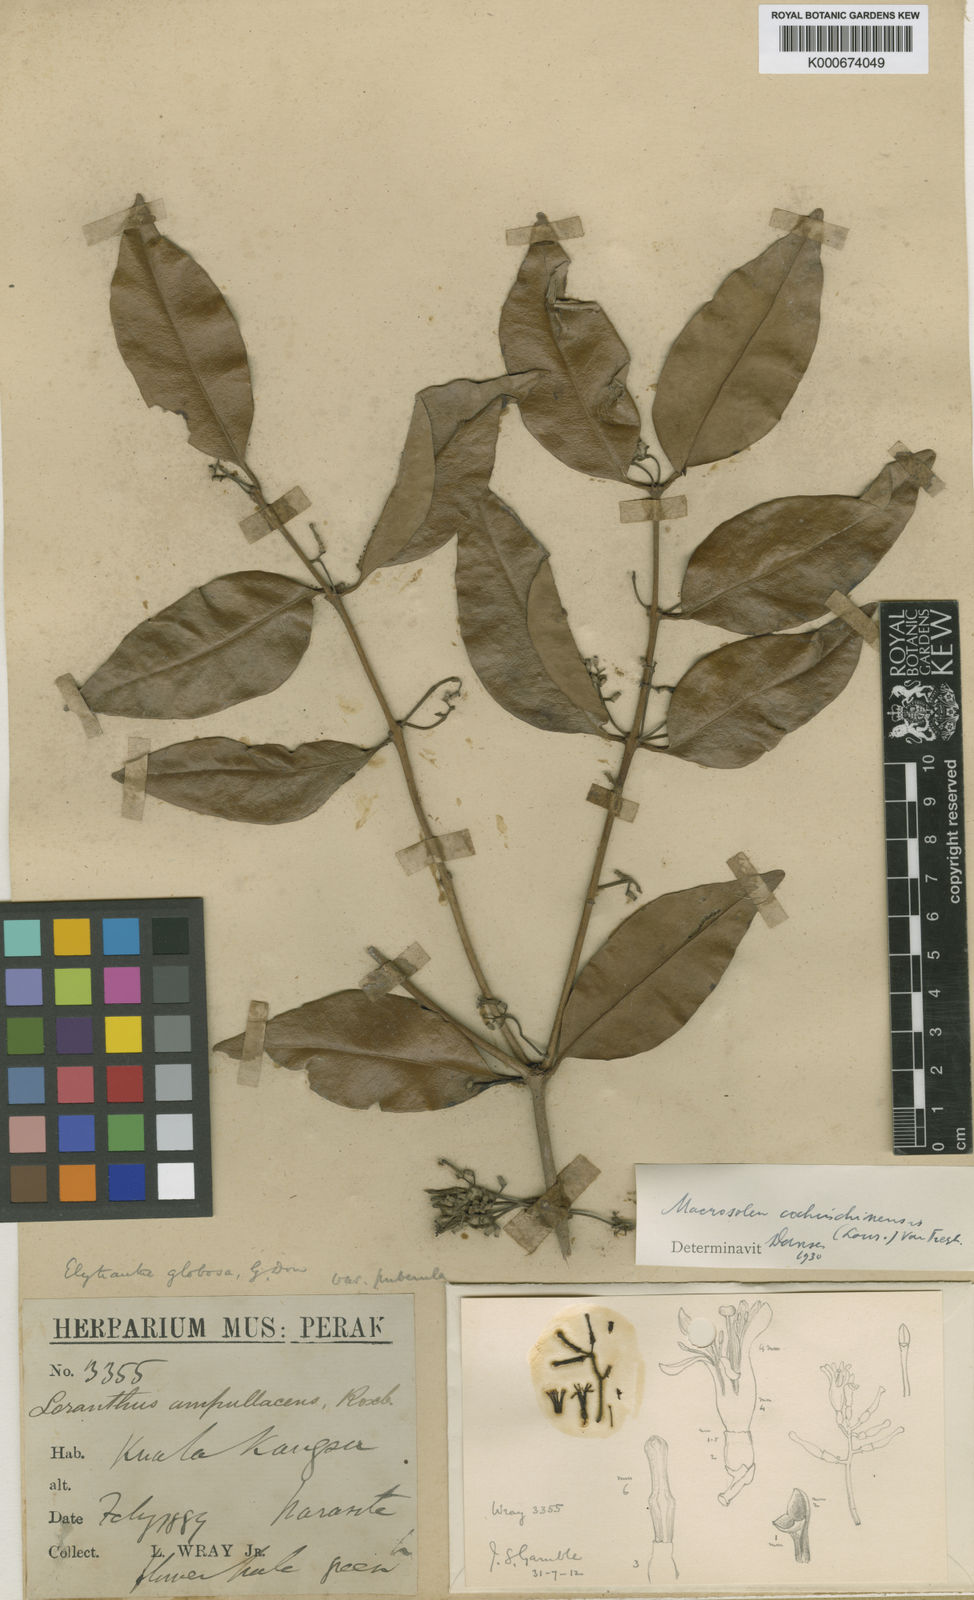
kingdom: Plantae
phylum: Tracheophyta
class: Magnoliopsida
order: Santalales
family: Loranthaceae
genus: Macrosolen
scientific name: Macrosolen cochinchinensis
